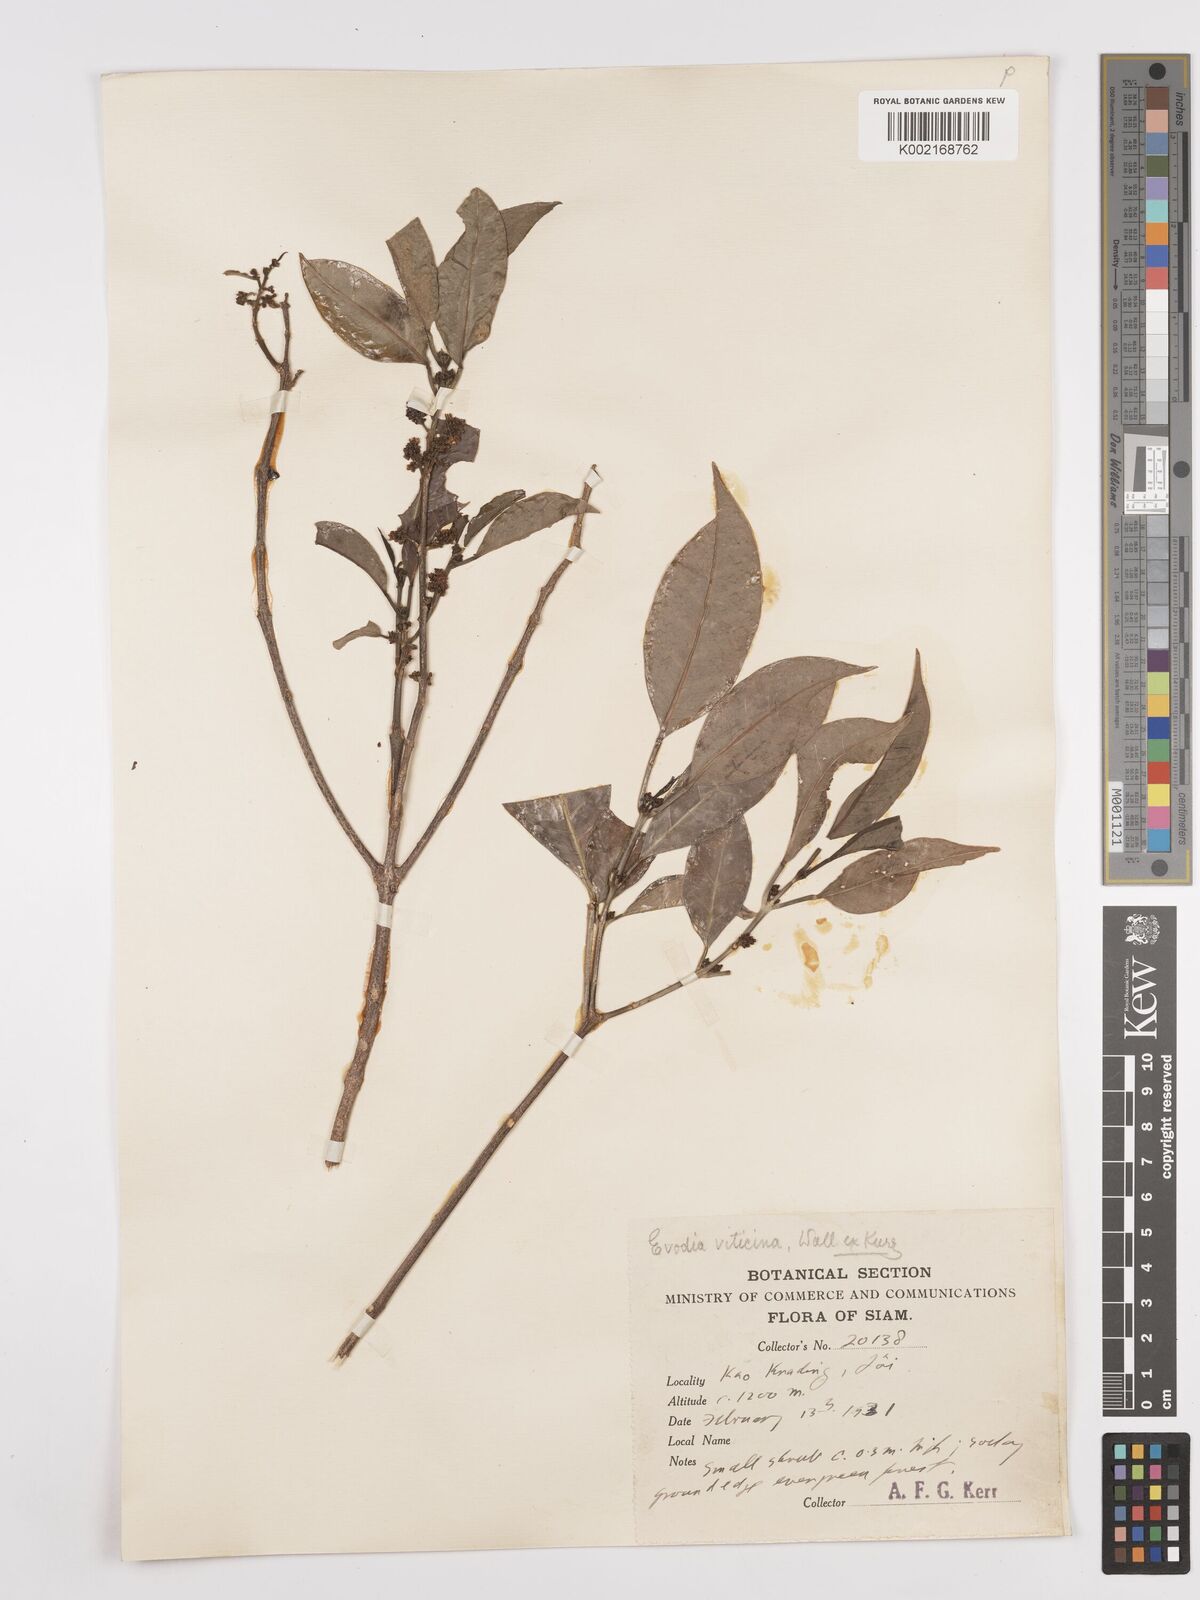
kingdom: Plantae
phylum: Tracheophyta
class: Magnoliopsida
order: Sapindales
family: Rutaceae
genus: Euodia
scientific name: Euodia
